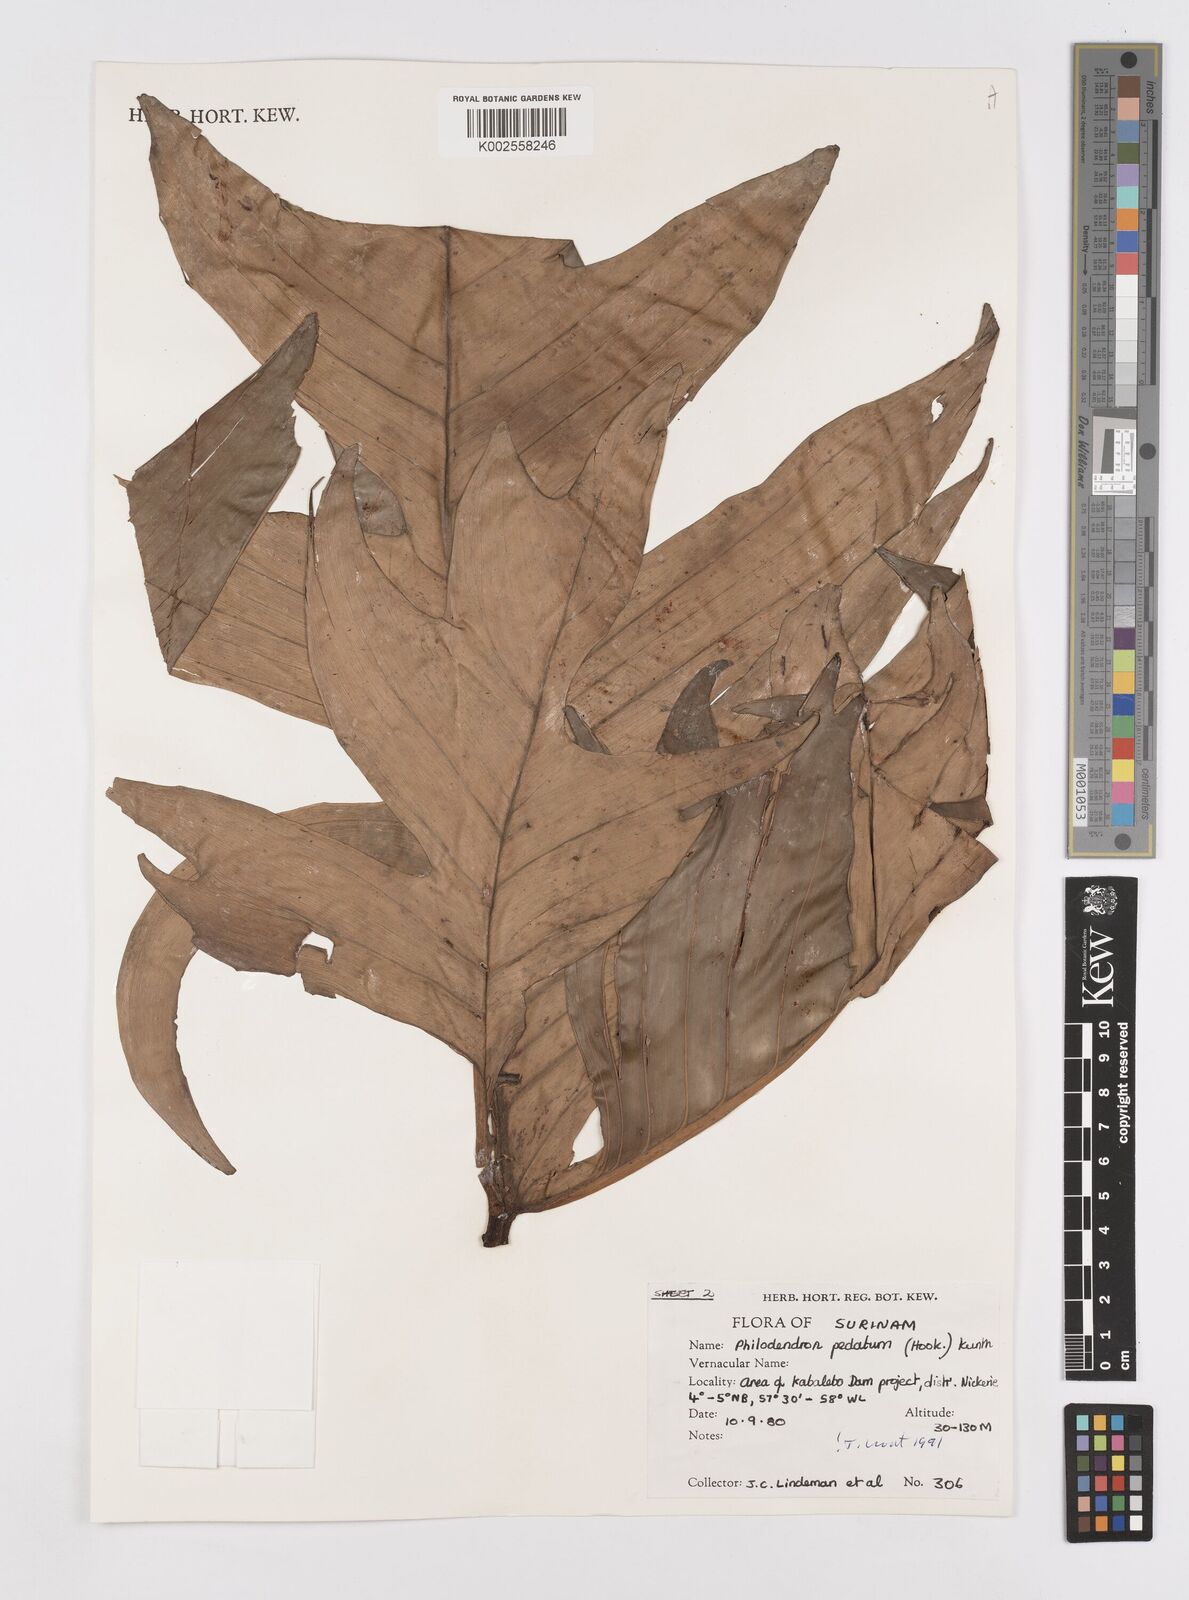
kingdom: Plantae
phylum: Tracheophyta
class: Liliopsida
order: Alismatales
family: Araceae
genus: Philodendron
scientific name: Philodendron pedatum
